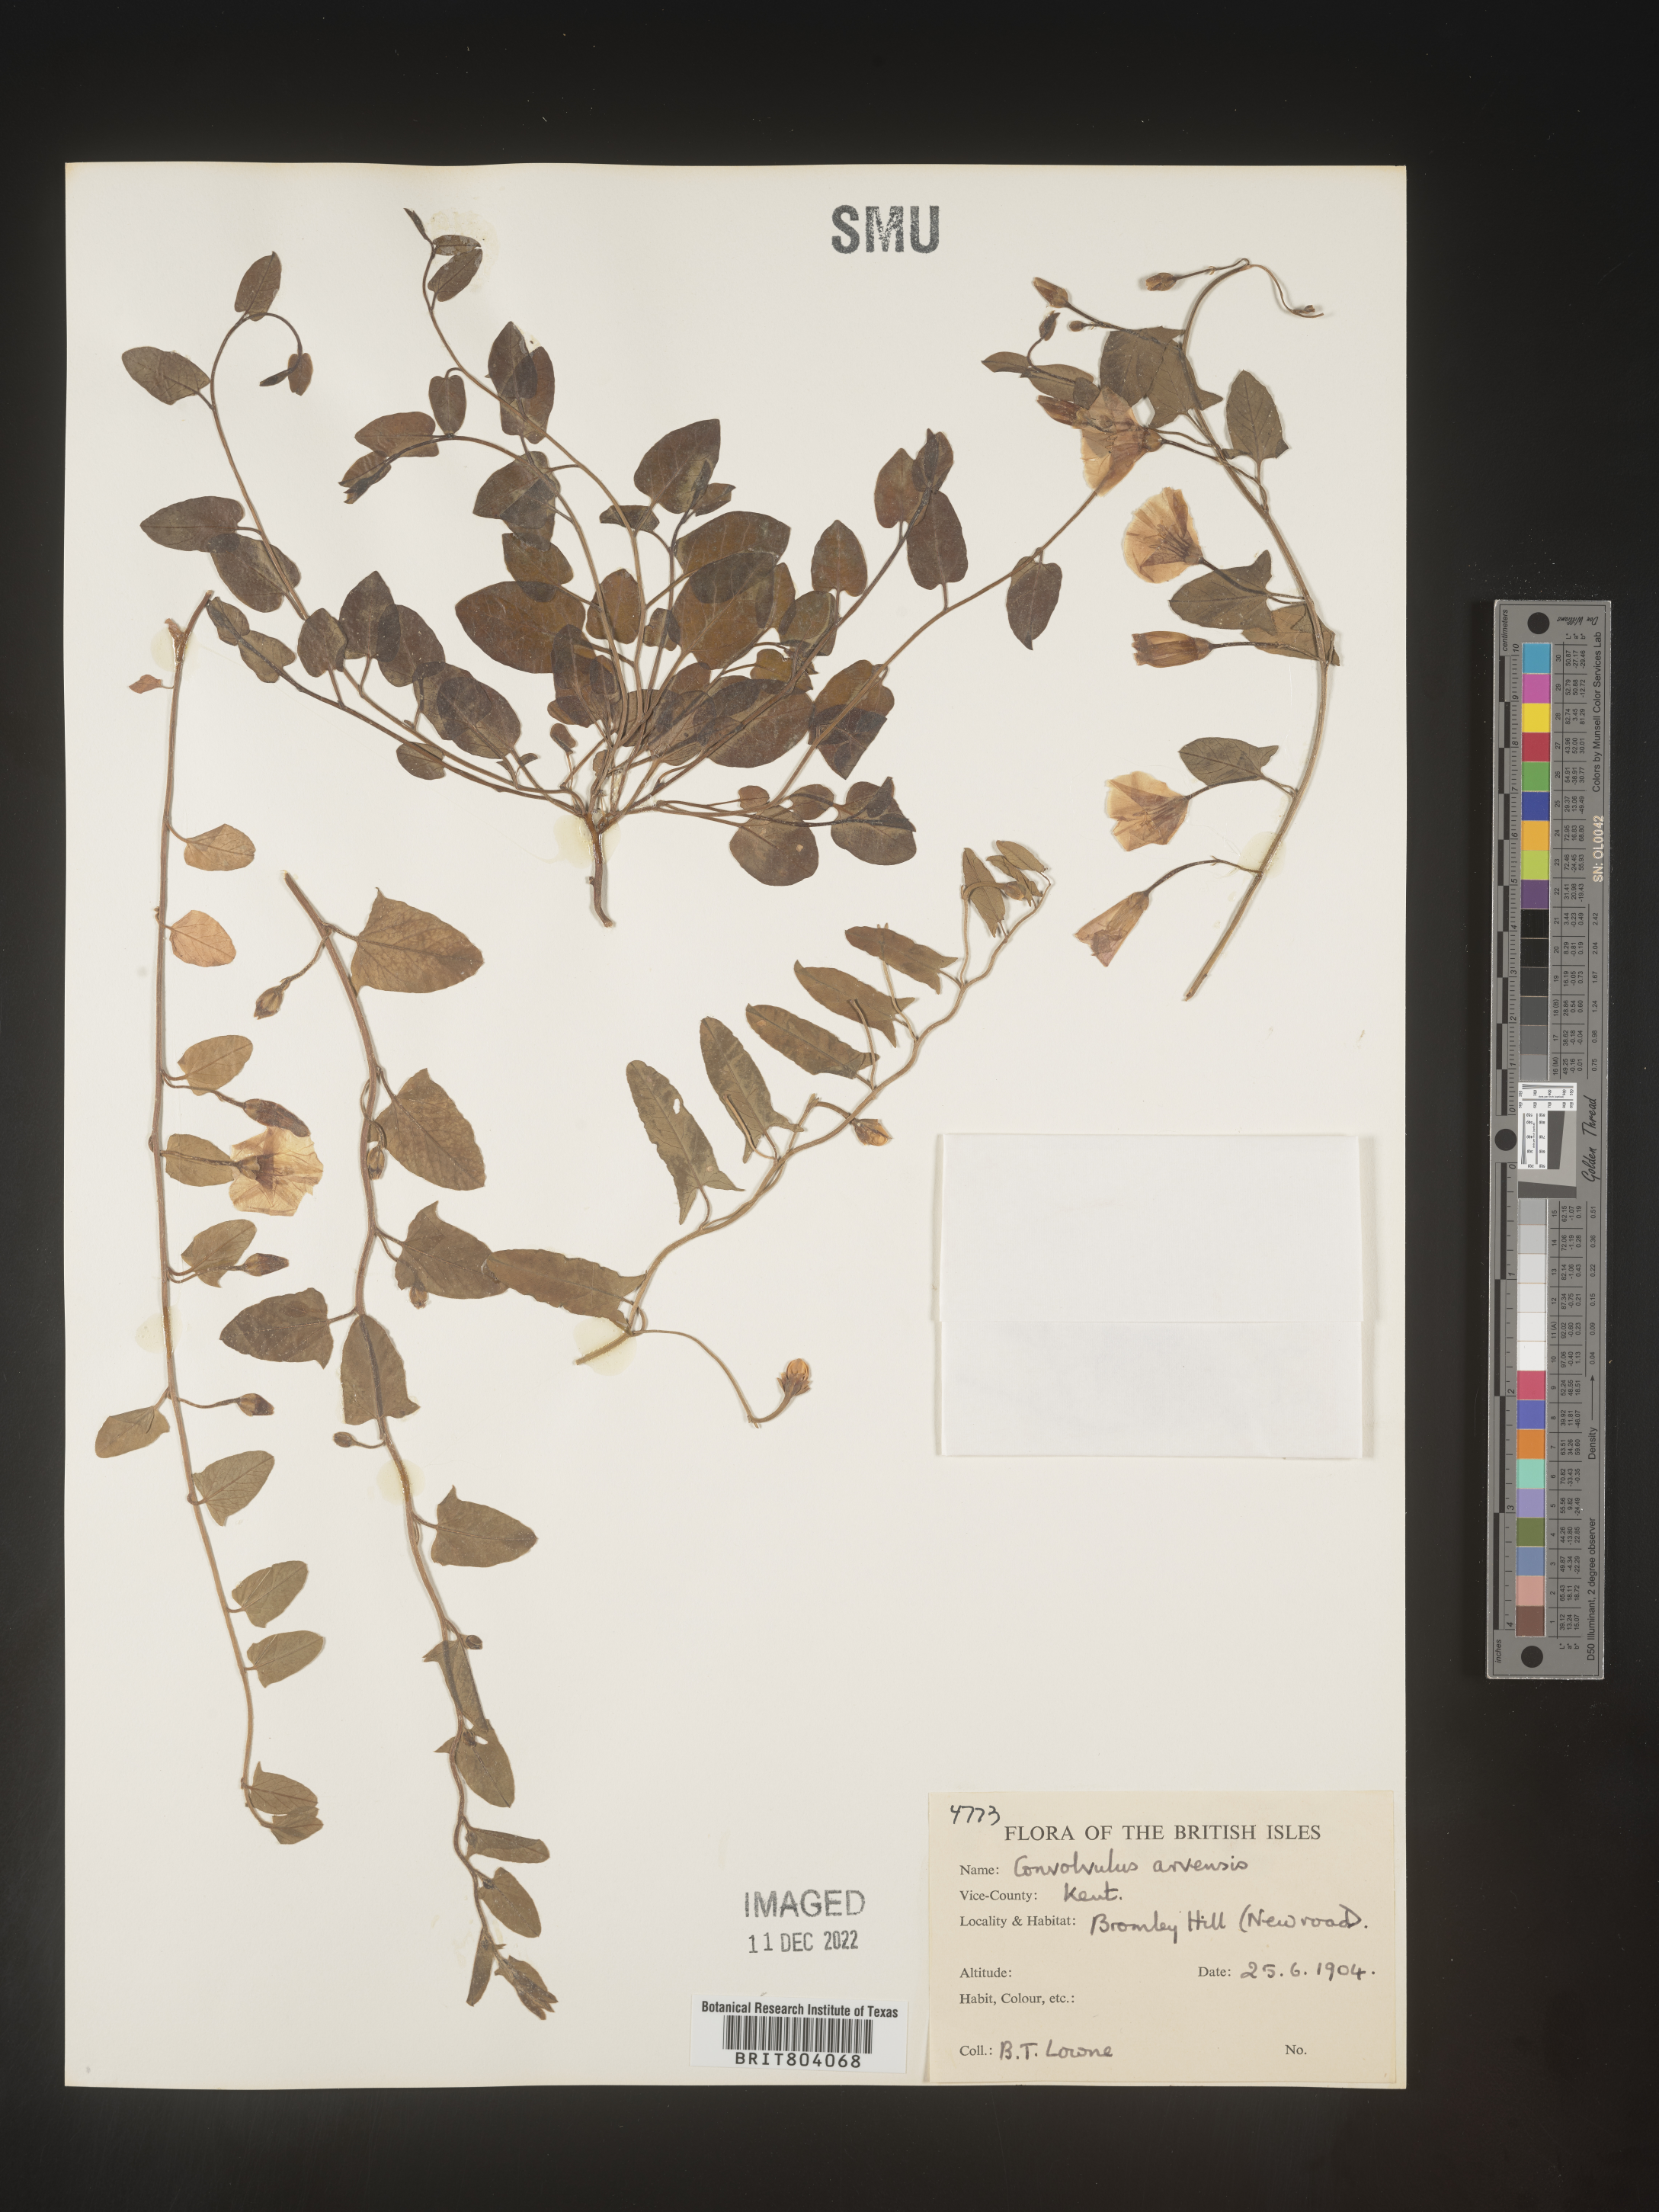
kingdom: Plantae
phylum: Tracheophyta
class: Magnoliopsida
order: Solanales
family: Convolvulaceae
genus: Convolvulus
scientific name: Convolvulus
